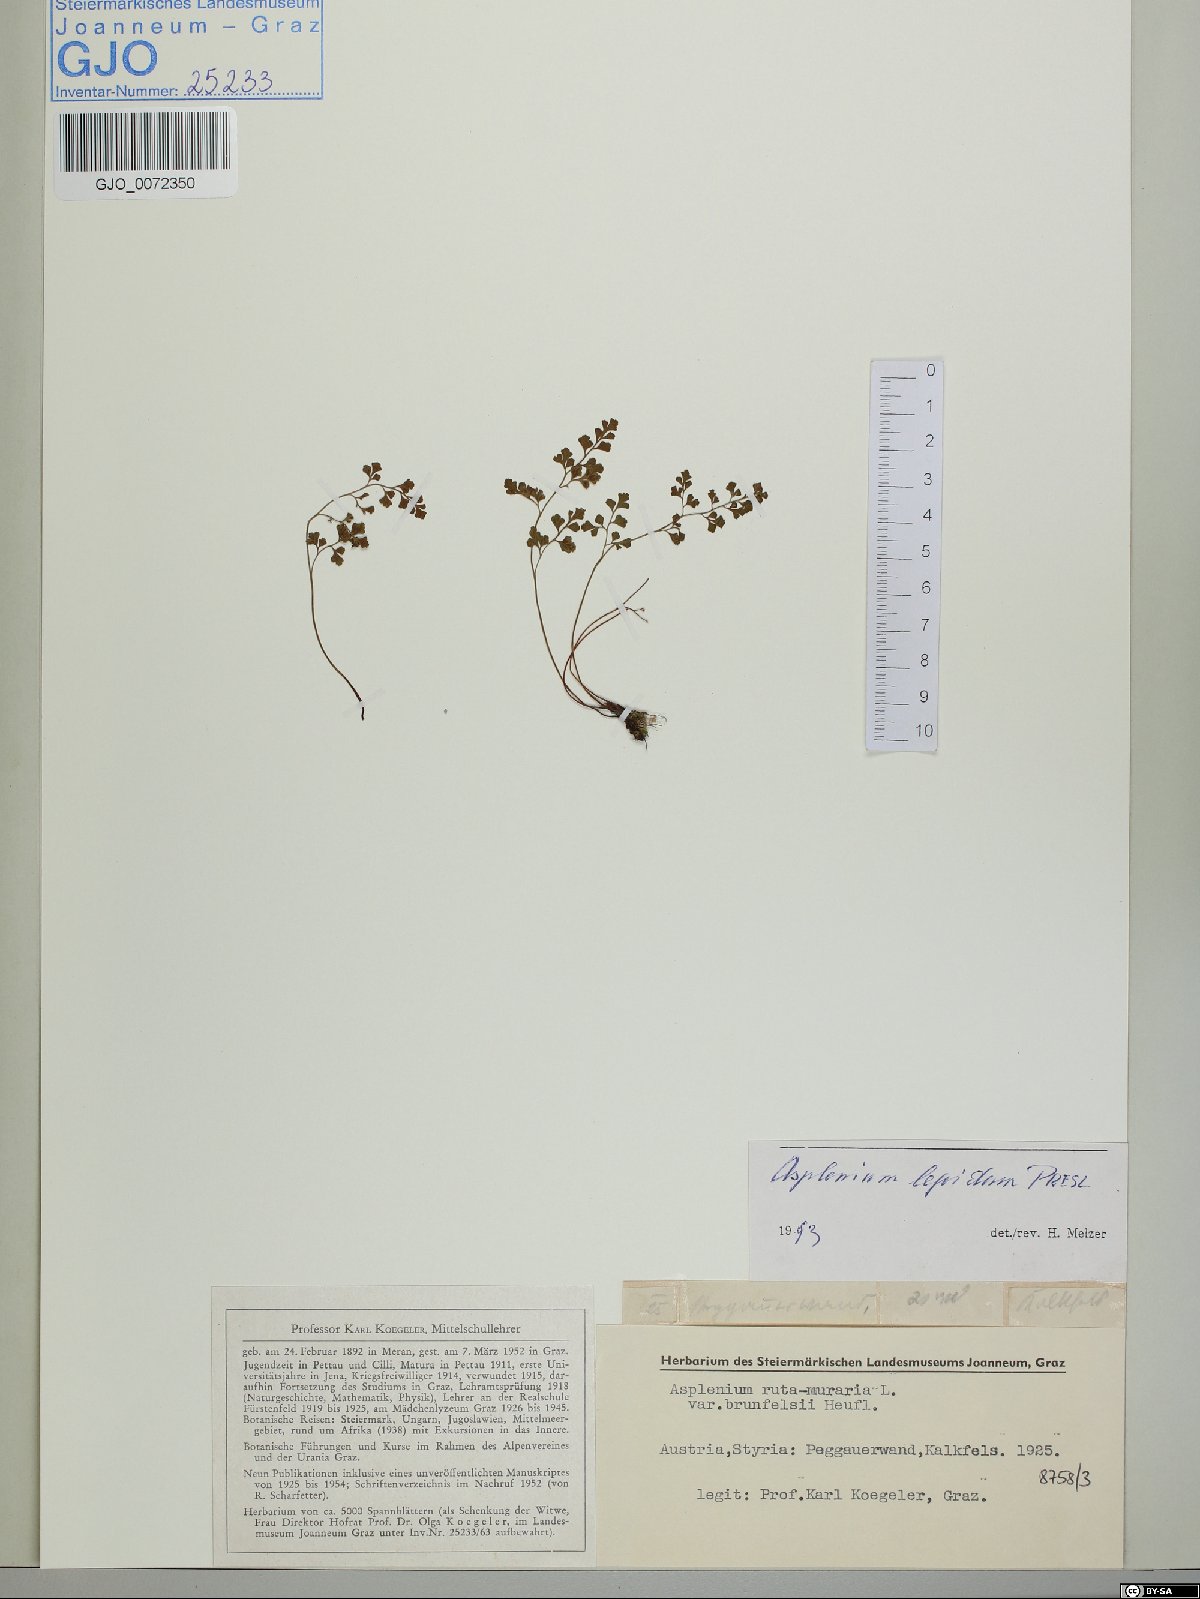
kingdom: Plantae
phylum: Tracheophyta
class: Polypodiopsida
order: Polypodiales
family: Aspleniaceae
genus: Asplenium
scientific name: Asplenium ruta-muraria
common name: Wall-rue
